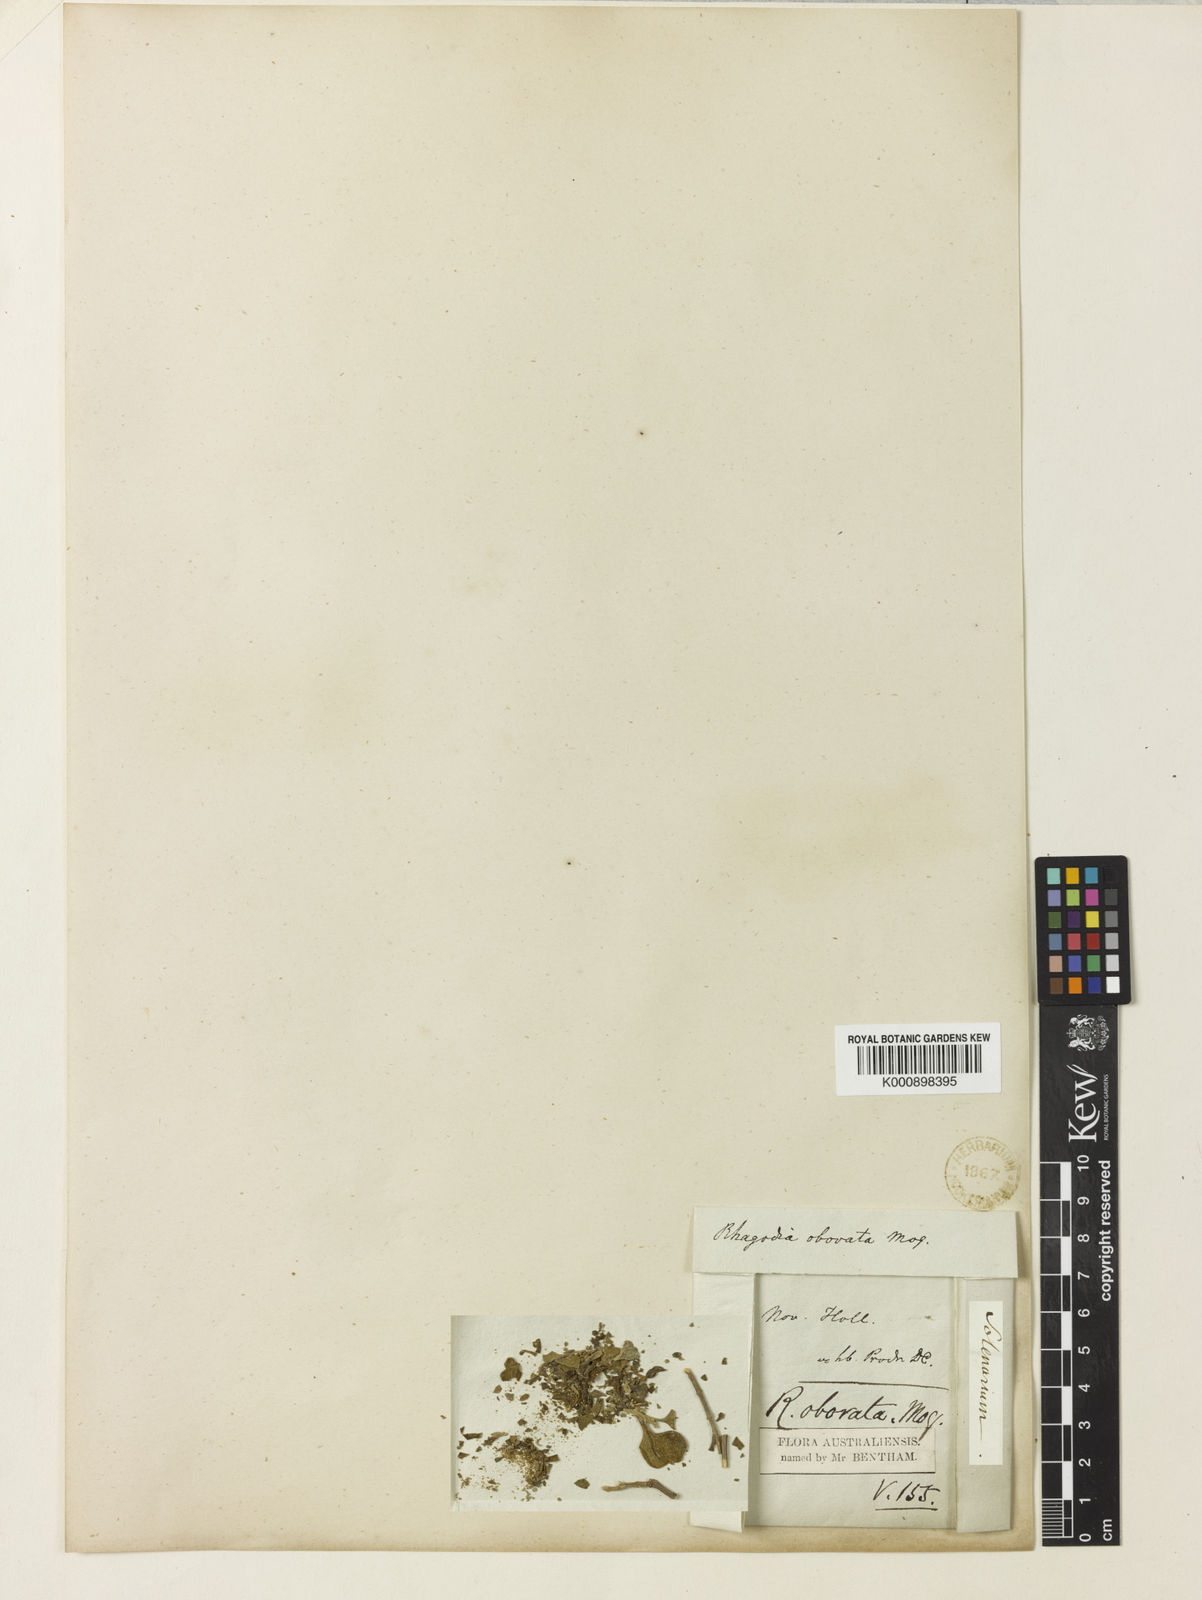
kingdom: Plantae
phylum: Tracheophyta
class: Magnoliopsida
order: Caryophyllales
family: Amaranthaceae
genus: Chenopodium
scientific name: Chenopodium preissii
